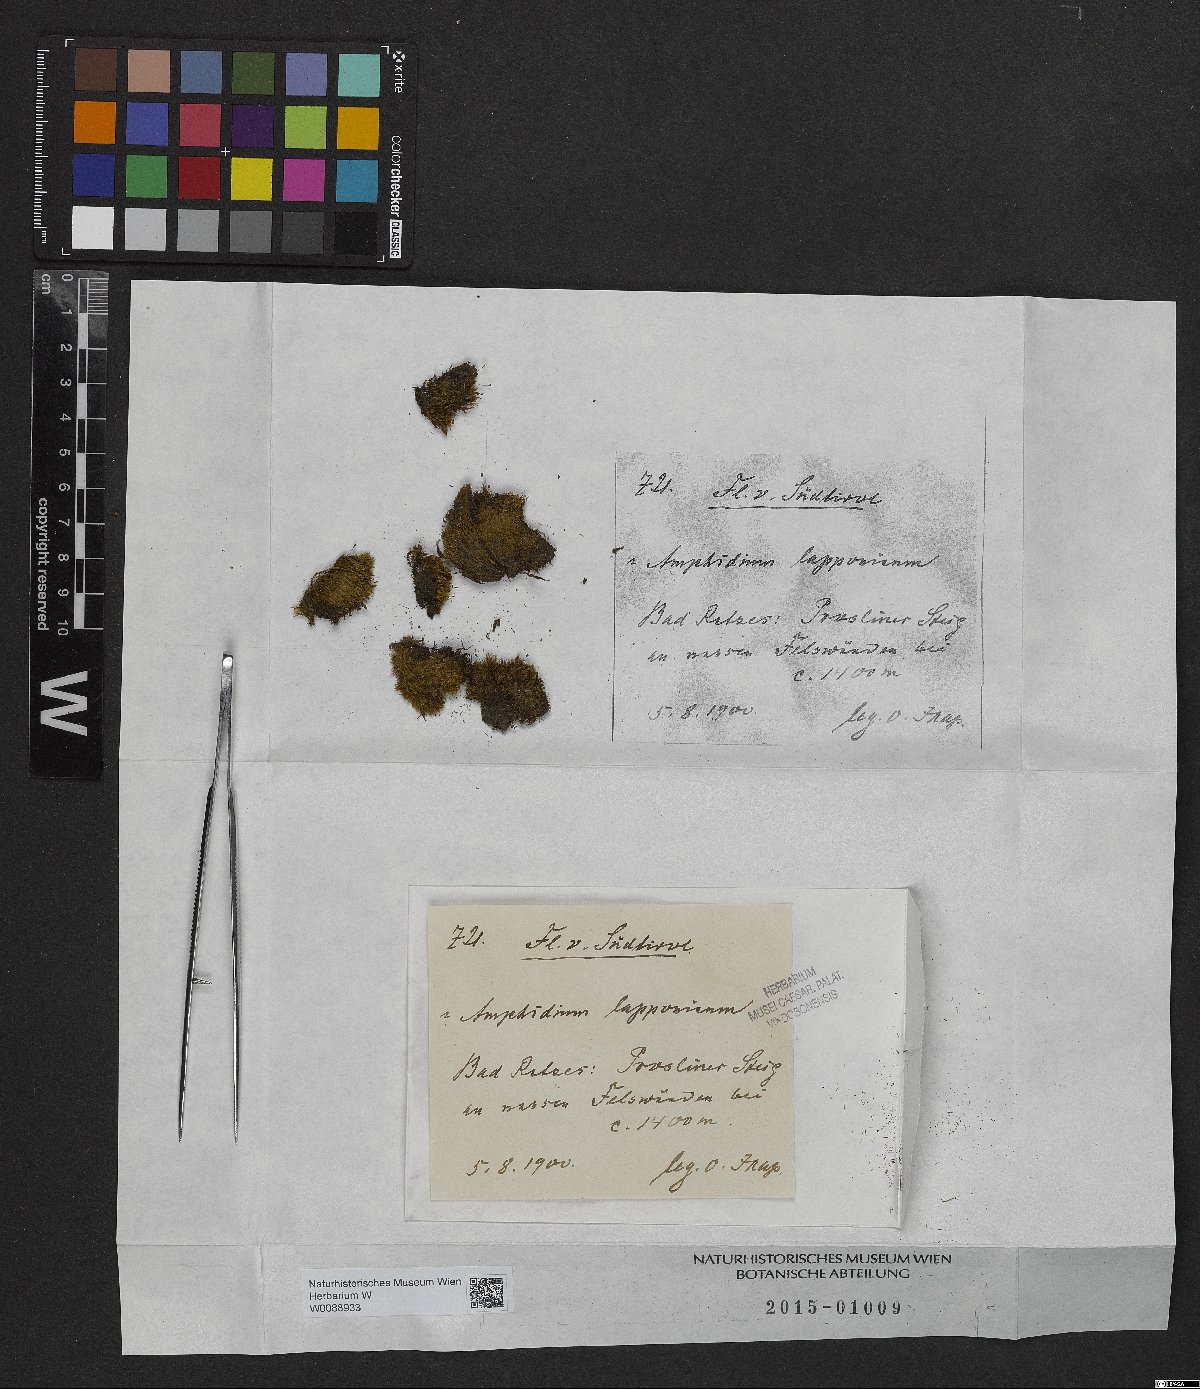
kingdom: Plantae
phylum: Bryophyta
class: Bryopsida
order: Dicranales
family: Amphidiaceae
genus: Amphidium
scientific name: Amphidium lapponicum
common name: Lapland yoke moss
